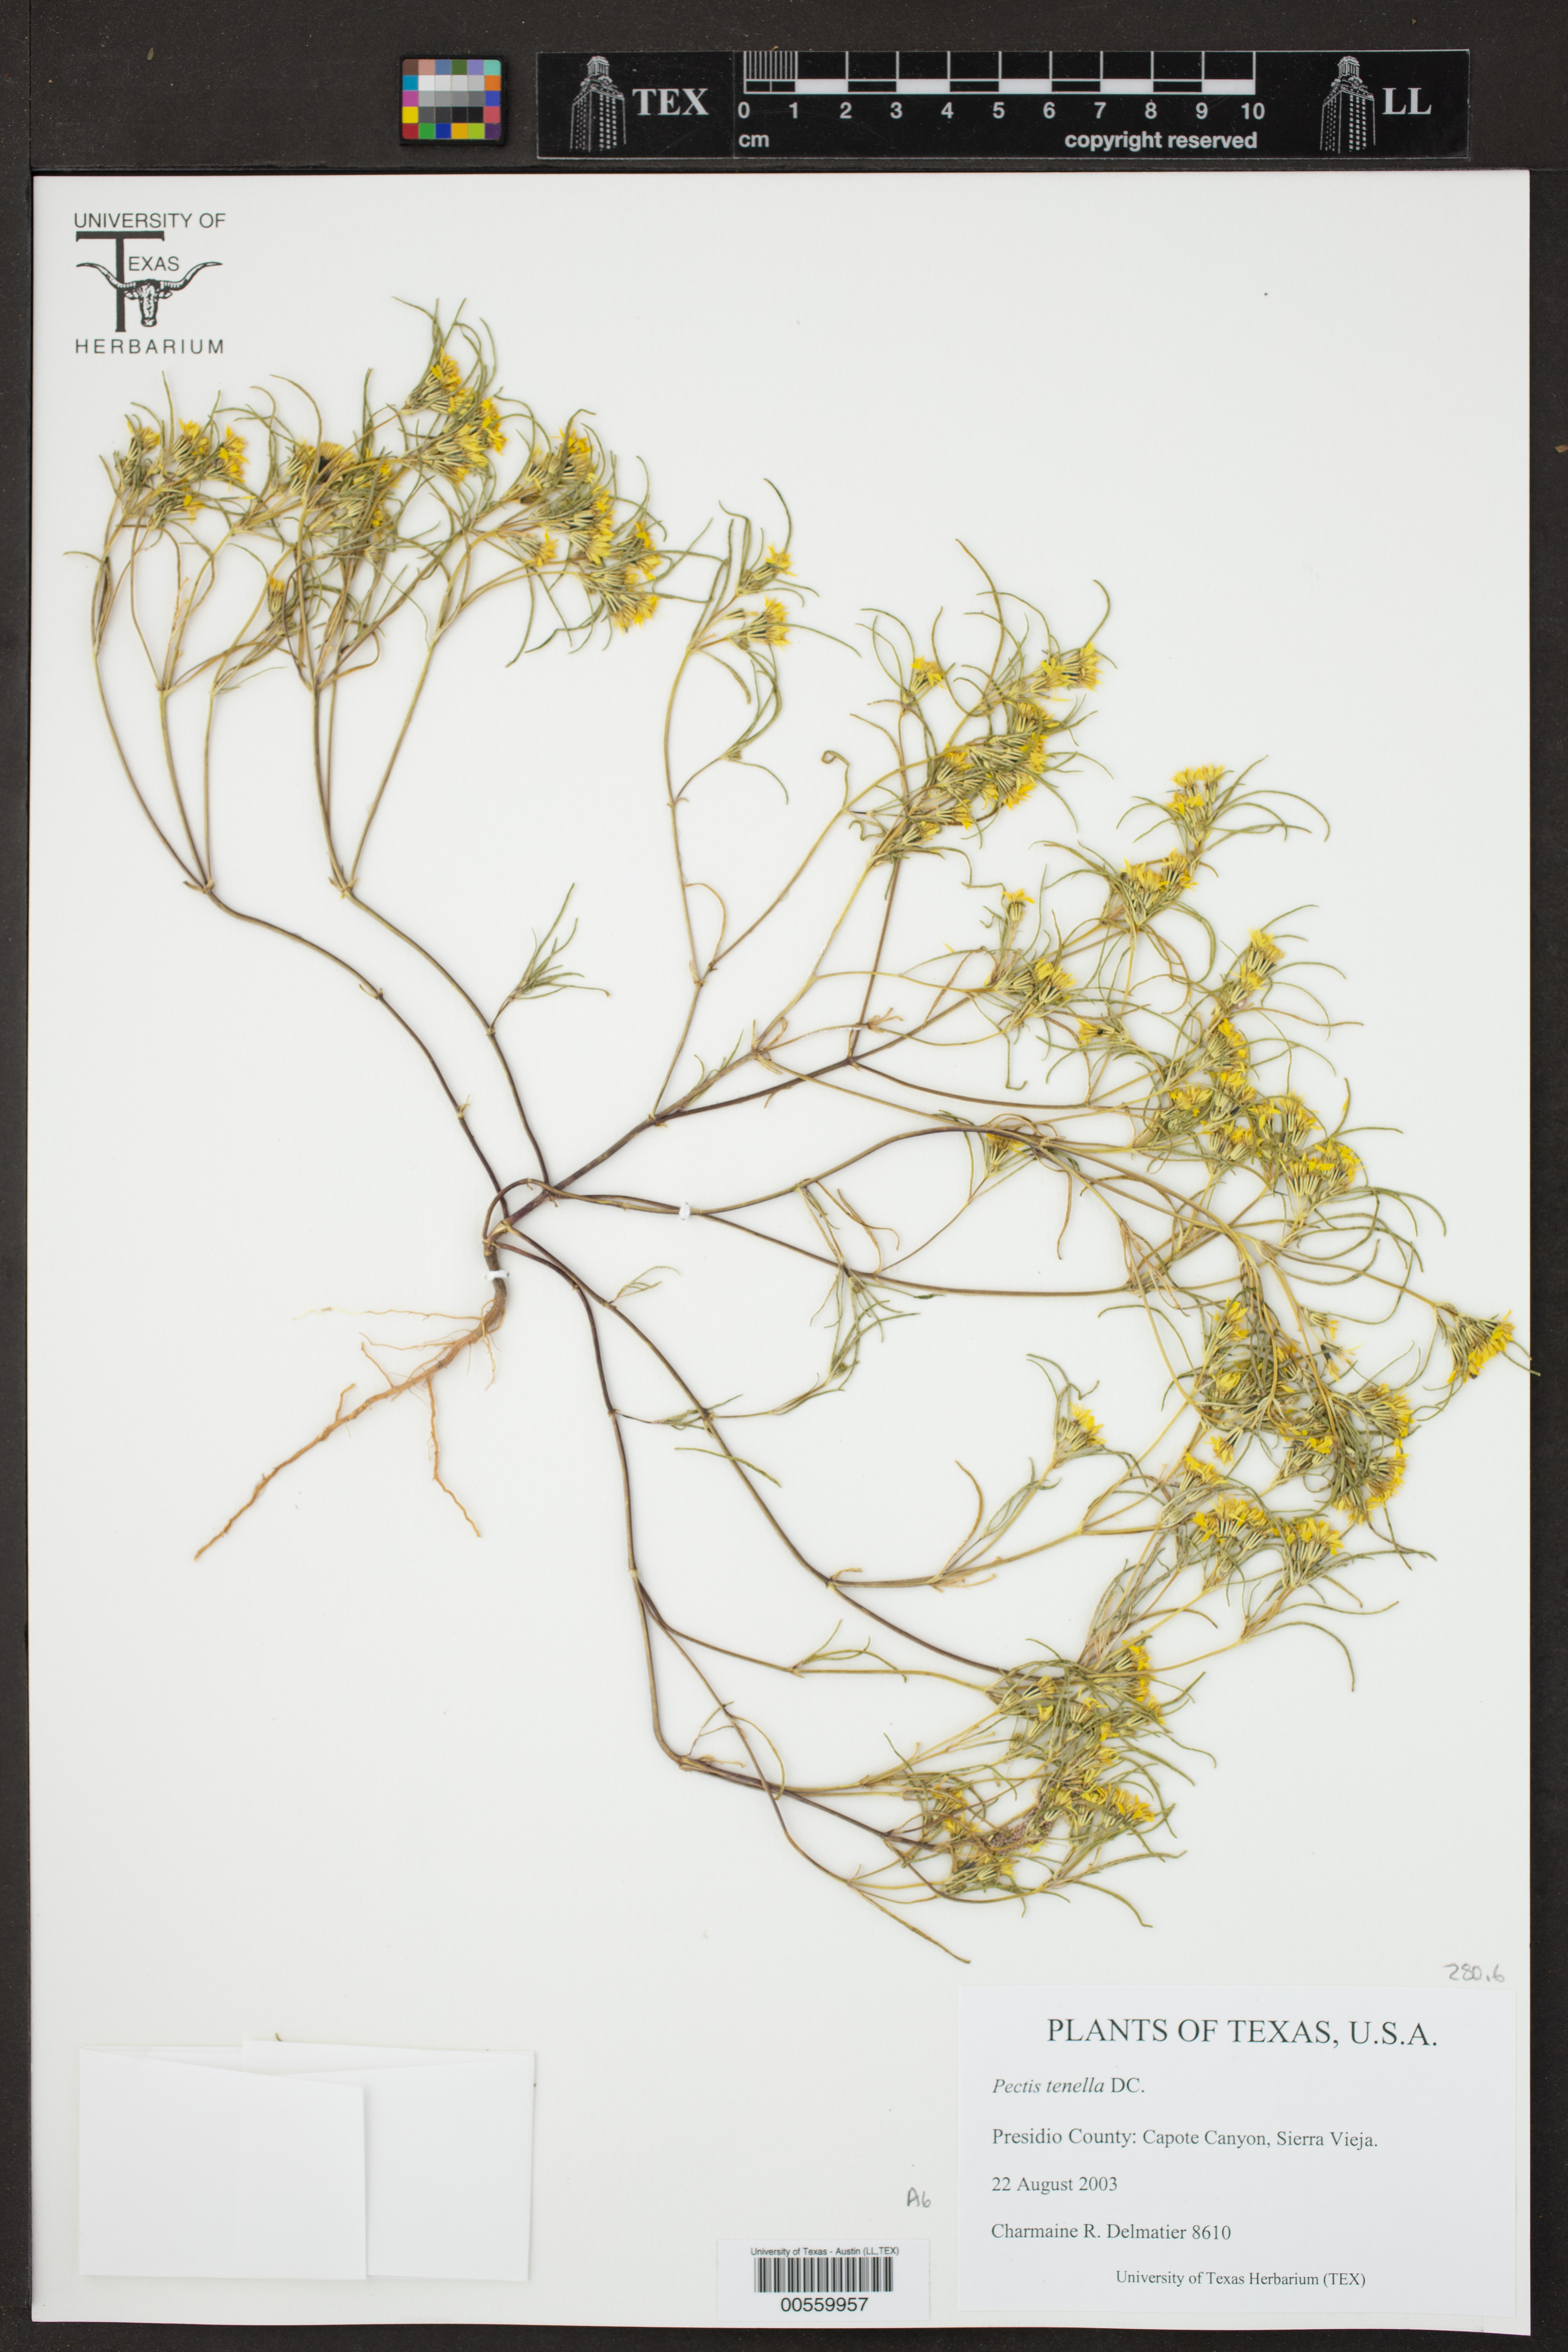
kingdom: Plantae
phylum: Tracheophyta
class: Magnoliopsida
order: Asterales
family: Asteraceae
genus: Pectis
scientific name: Pectis angustifolia
